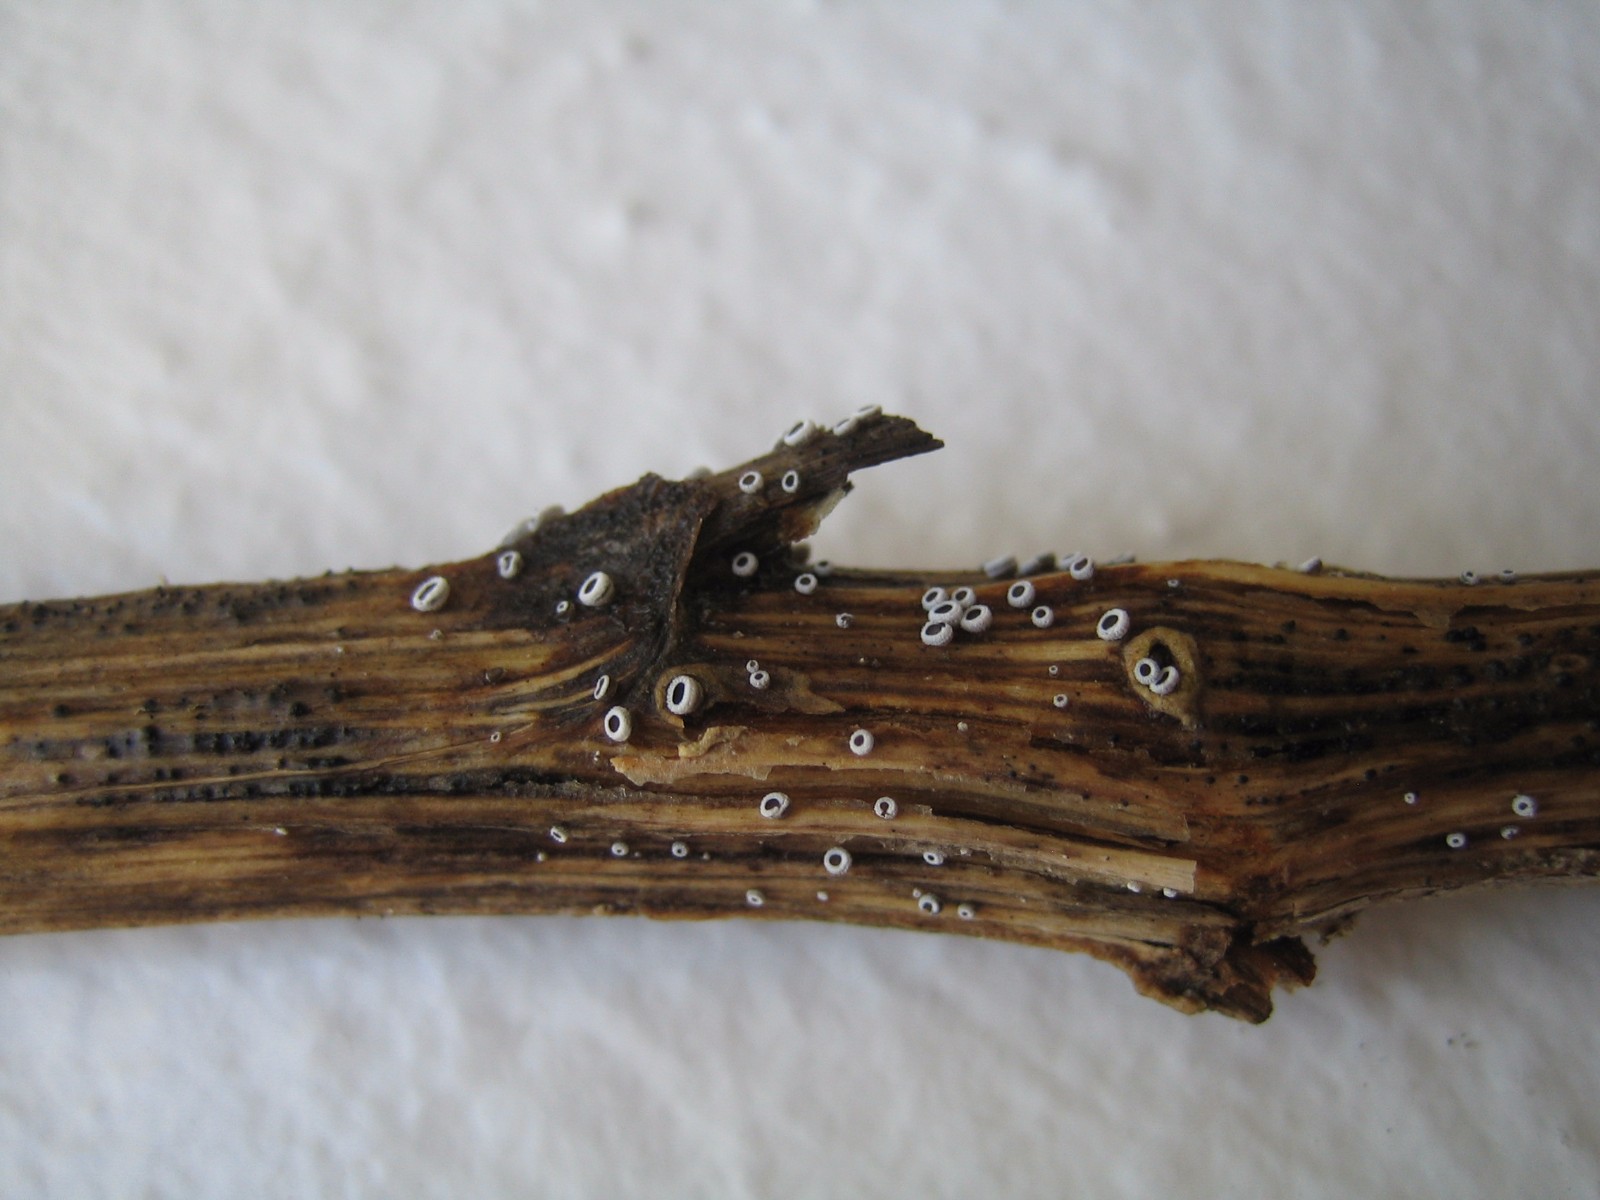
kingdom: Fungi
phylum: Basidiomycota
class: Agaricomycetes
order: Agaricales
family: Niaceae
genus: Lachnella
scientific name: Lachnella alboviolascens
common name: grå frynserede
